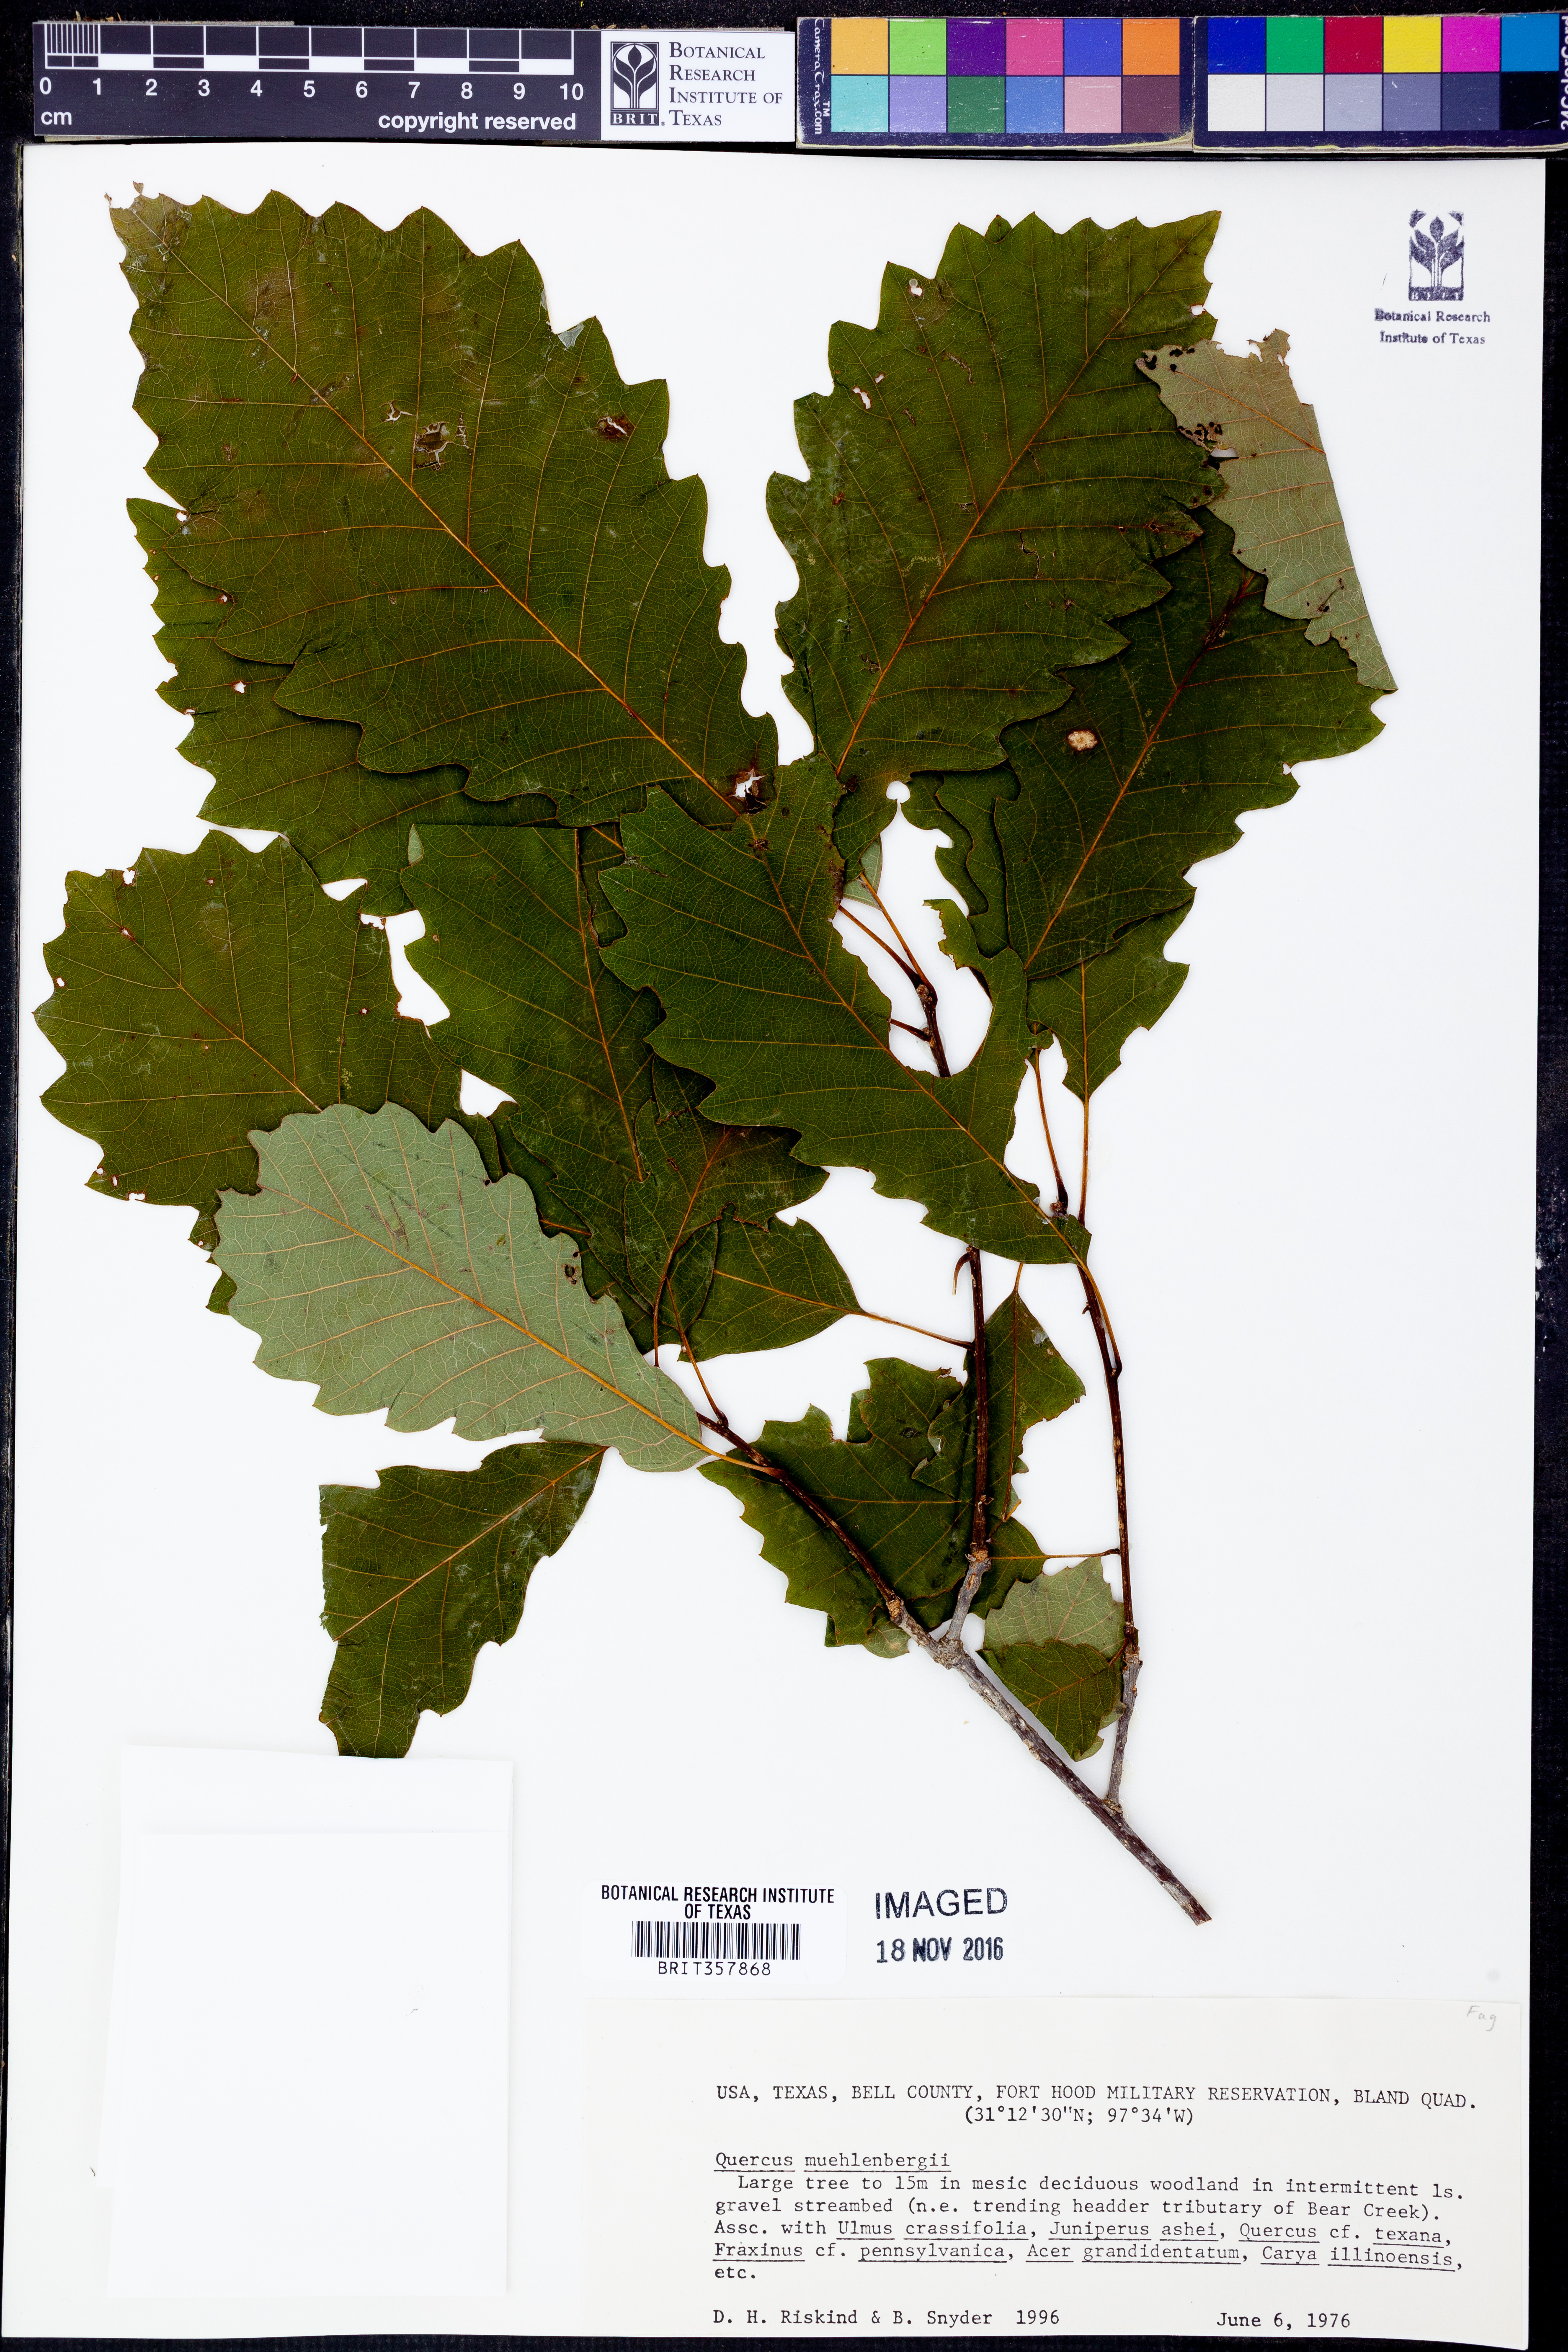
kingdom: Plantae
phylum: Tracheophyta
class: Magnoliopsida
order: Fagales
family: Fagaceae
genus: Quercus
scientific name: Quercus muehlenbergii
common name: Chinkapin oak
